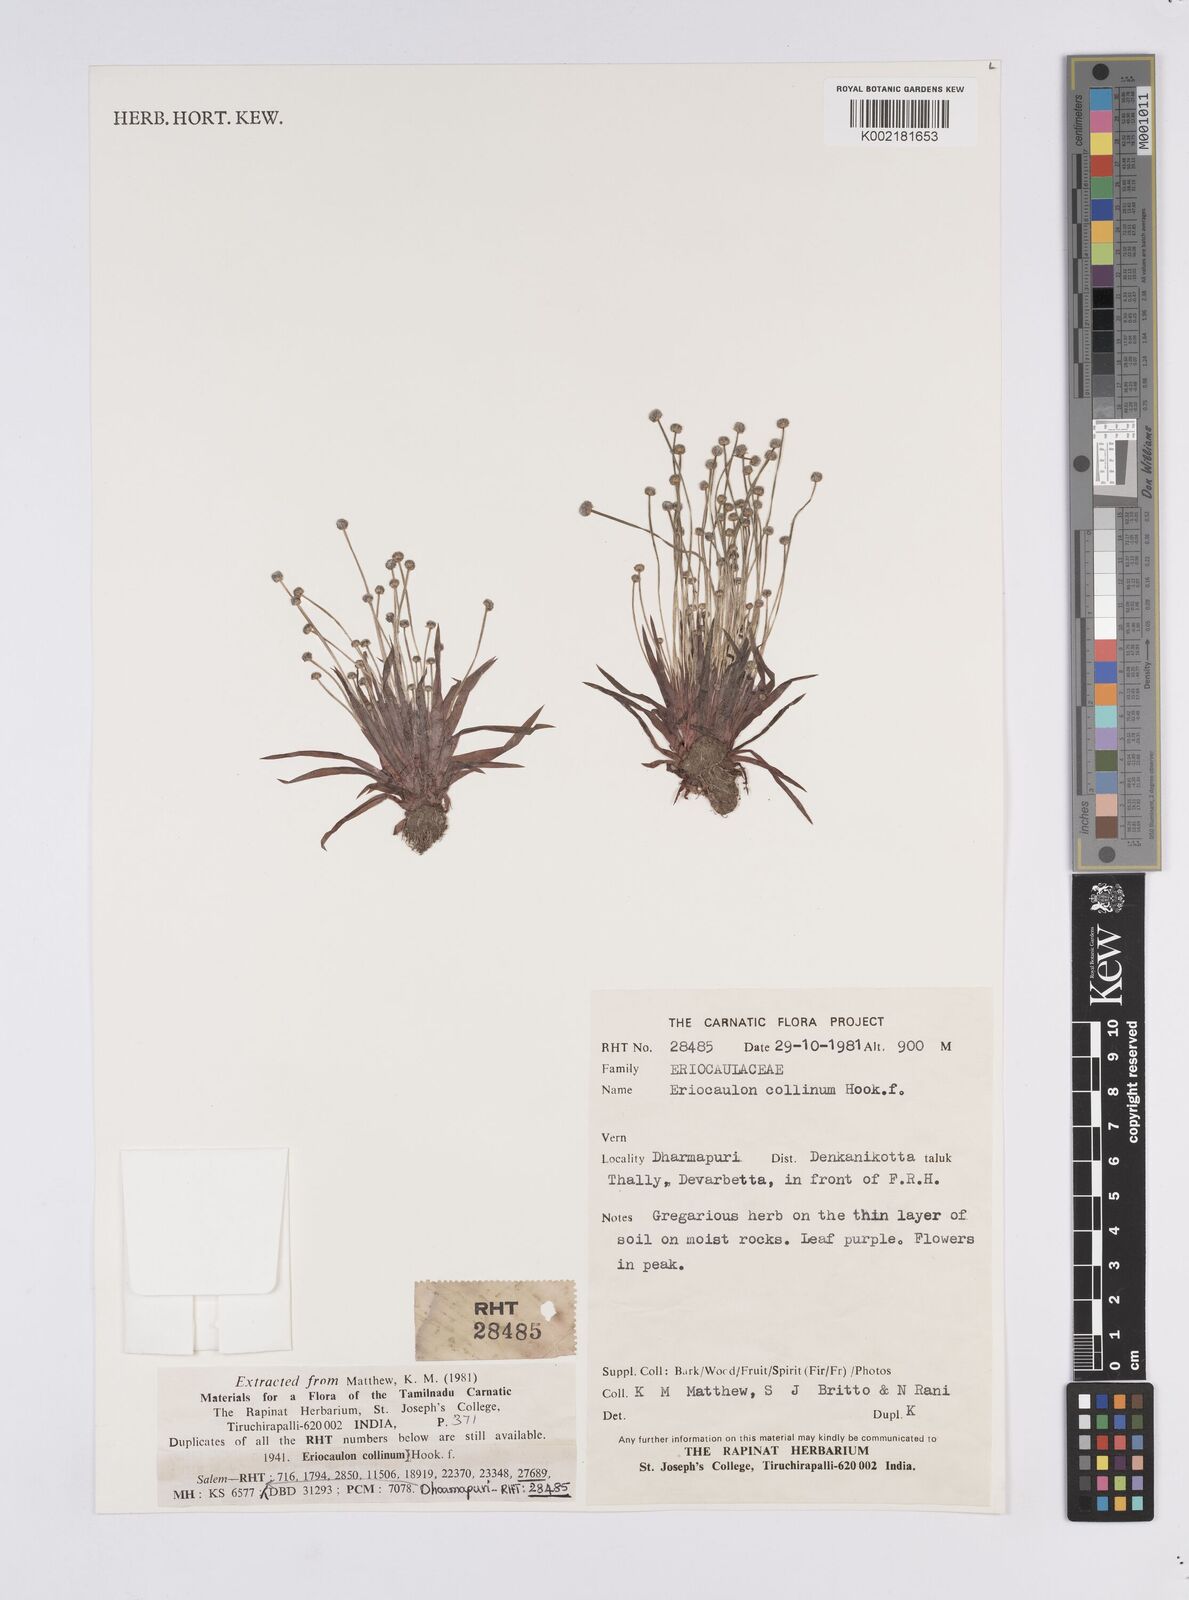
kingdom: Plantae
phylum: Tracheophyta
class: Liliopsida
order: Poales
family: Eriocaulaceae
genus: Eriocaulon
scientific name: Eriocaulon quinquangulare
